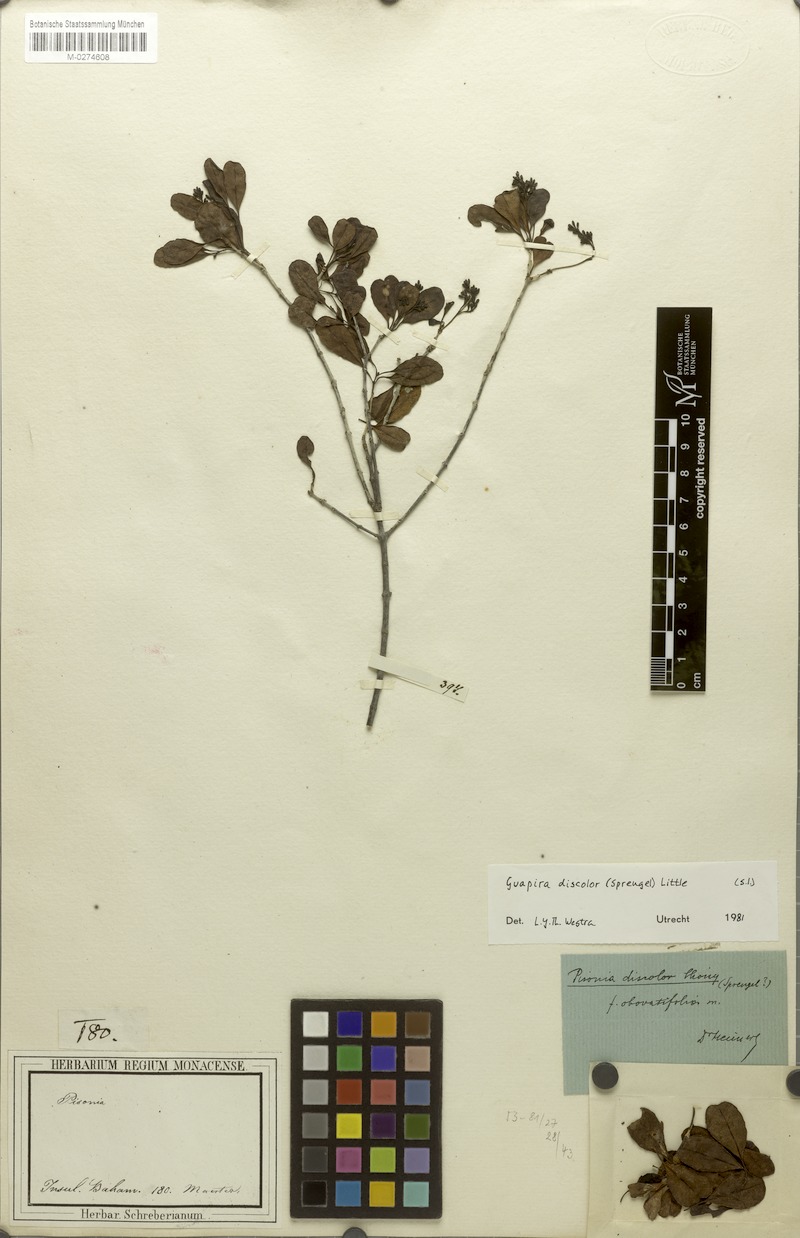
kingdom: Plantae
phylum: Tracheophyta
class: Magnoliopsida
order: Caryophyllales
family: Nyctaginaceae
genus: Guapira
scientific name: Guapira discolor
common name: Beeftree
